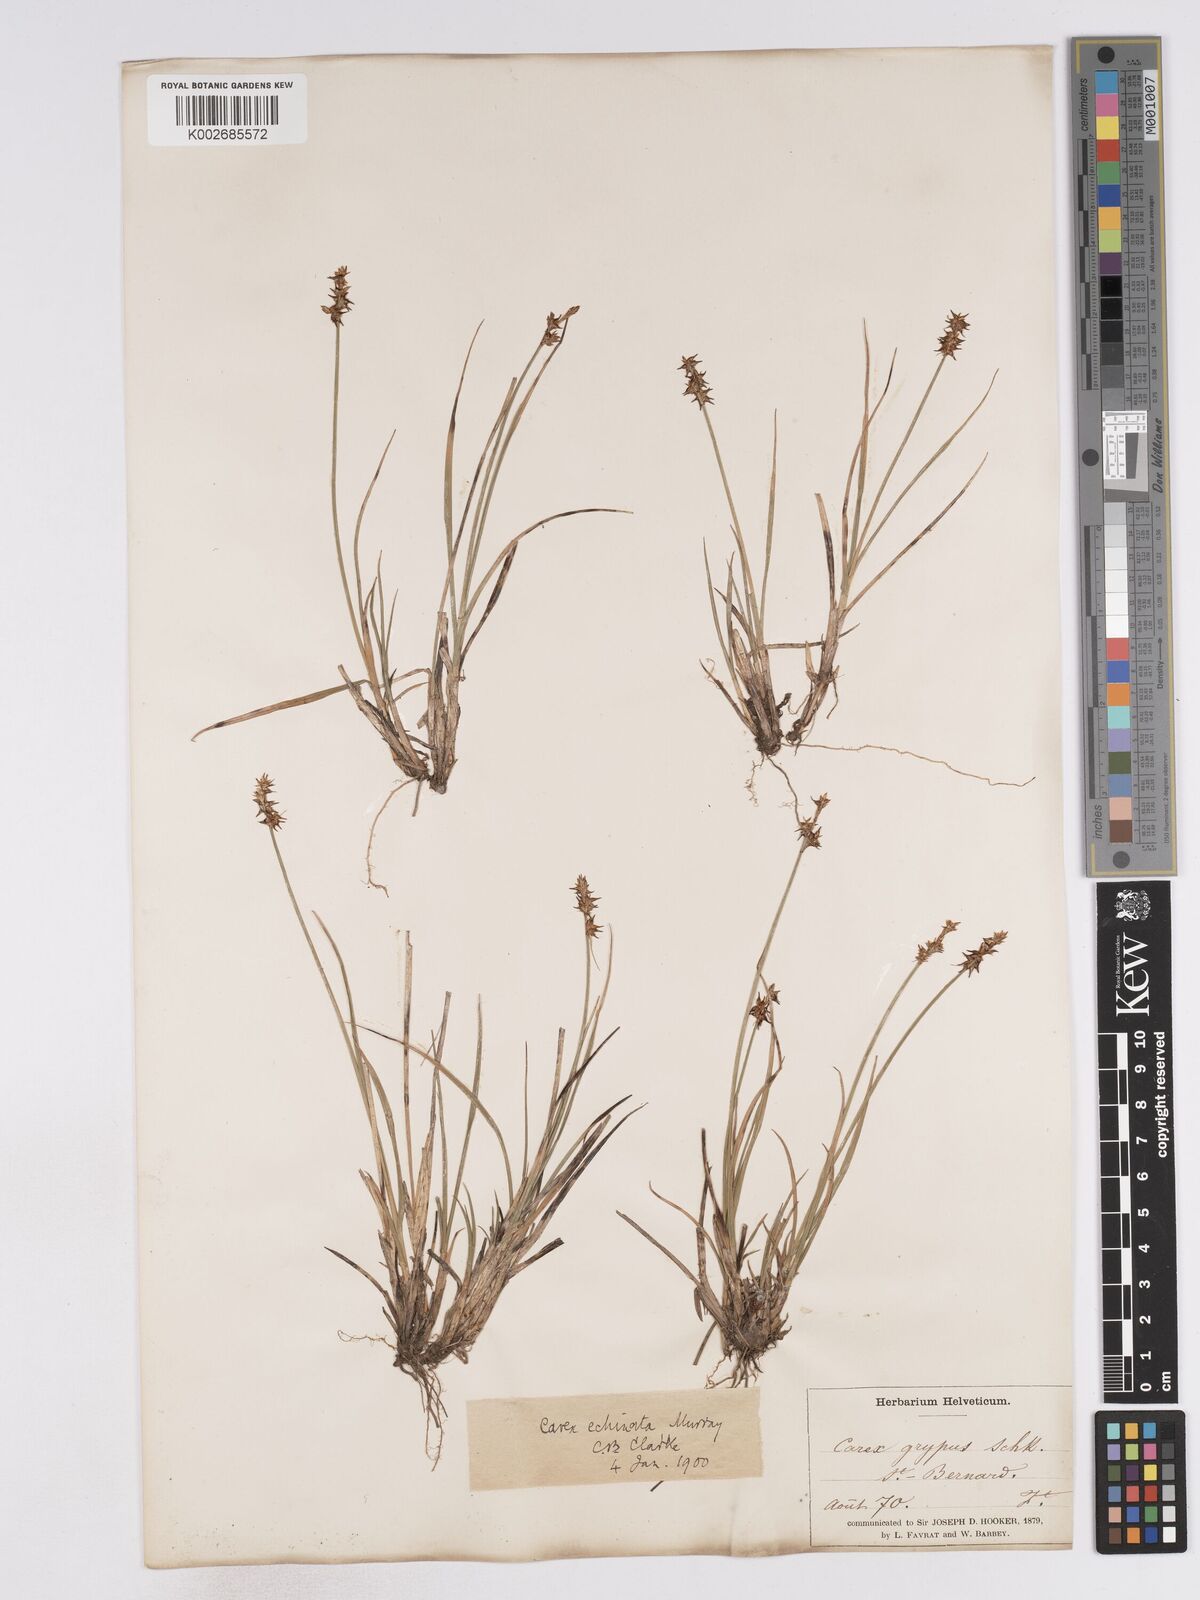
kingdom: Plantae
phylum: Tracheophyta
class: Liliopsida
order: Poales
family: Cyperaceae
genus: Carex
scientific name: Carex echinata
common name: Star sedge
